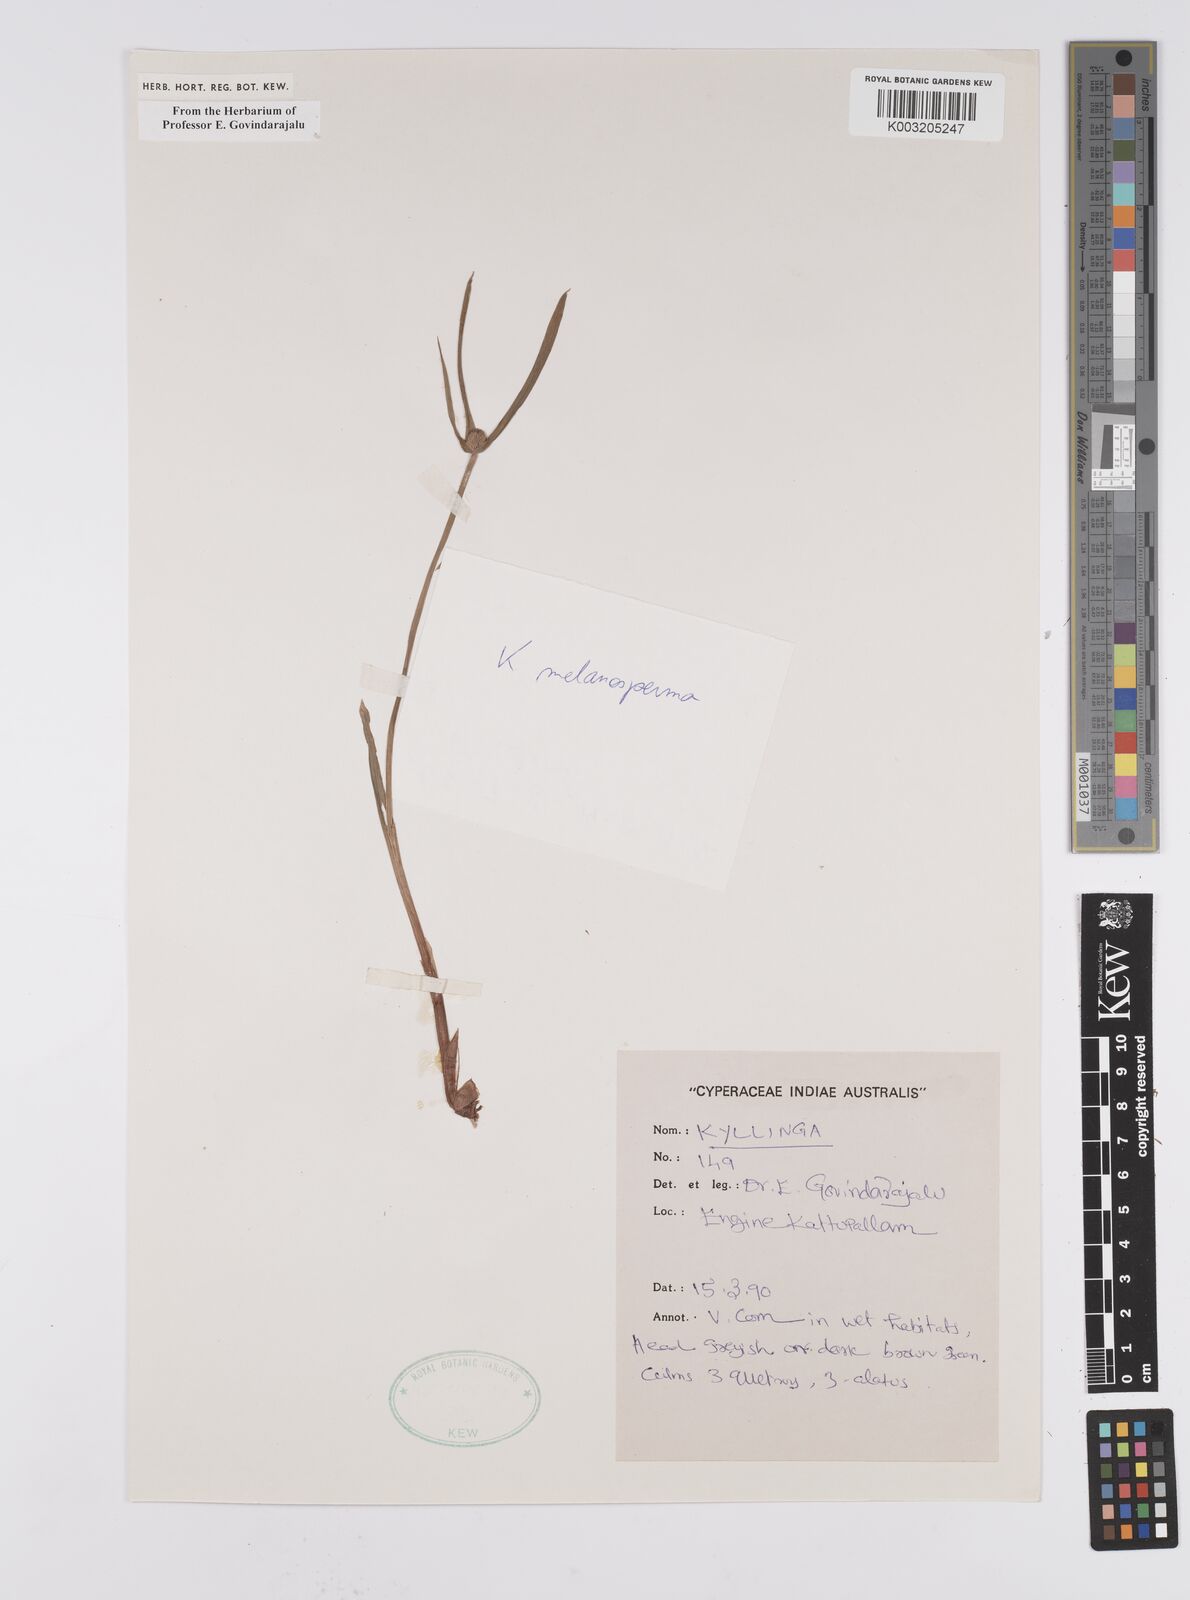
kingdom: Plantae
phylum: Tracheophyta
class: Liliopsida
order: Poales
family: Cyperaceae
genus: Cyperus
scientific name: Cyperus melanospermus
